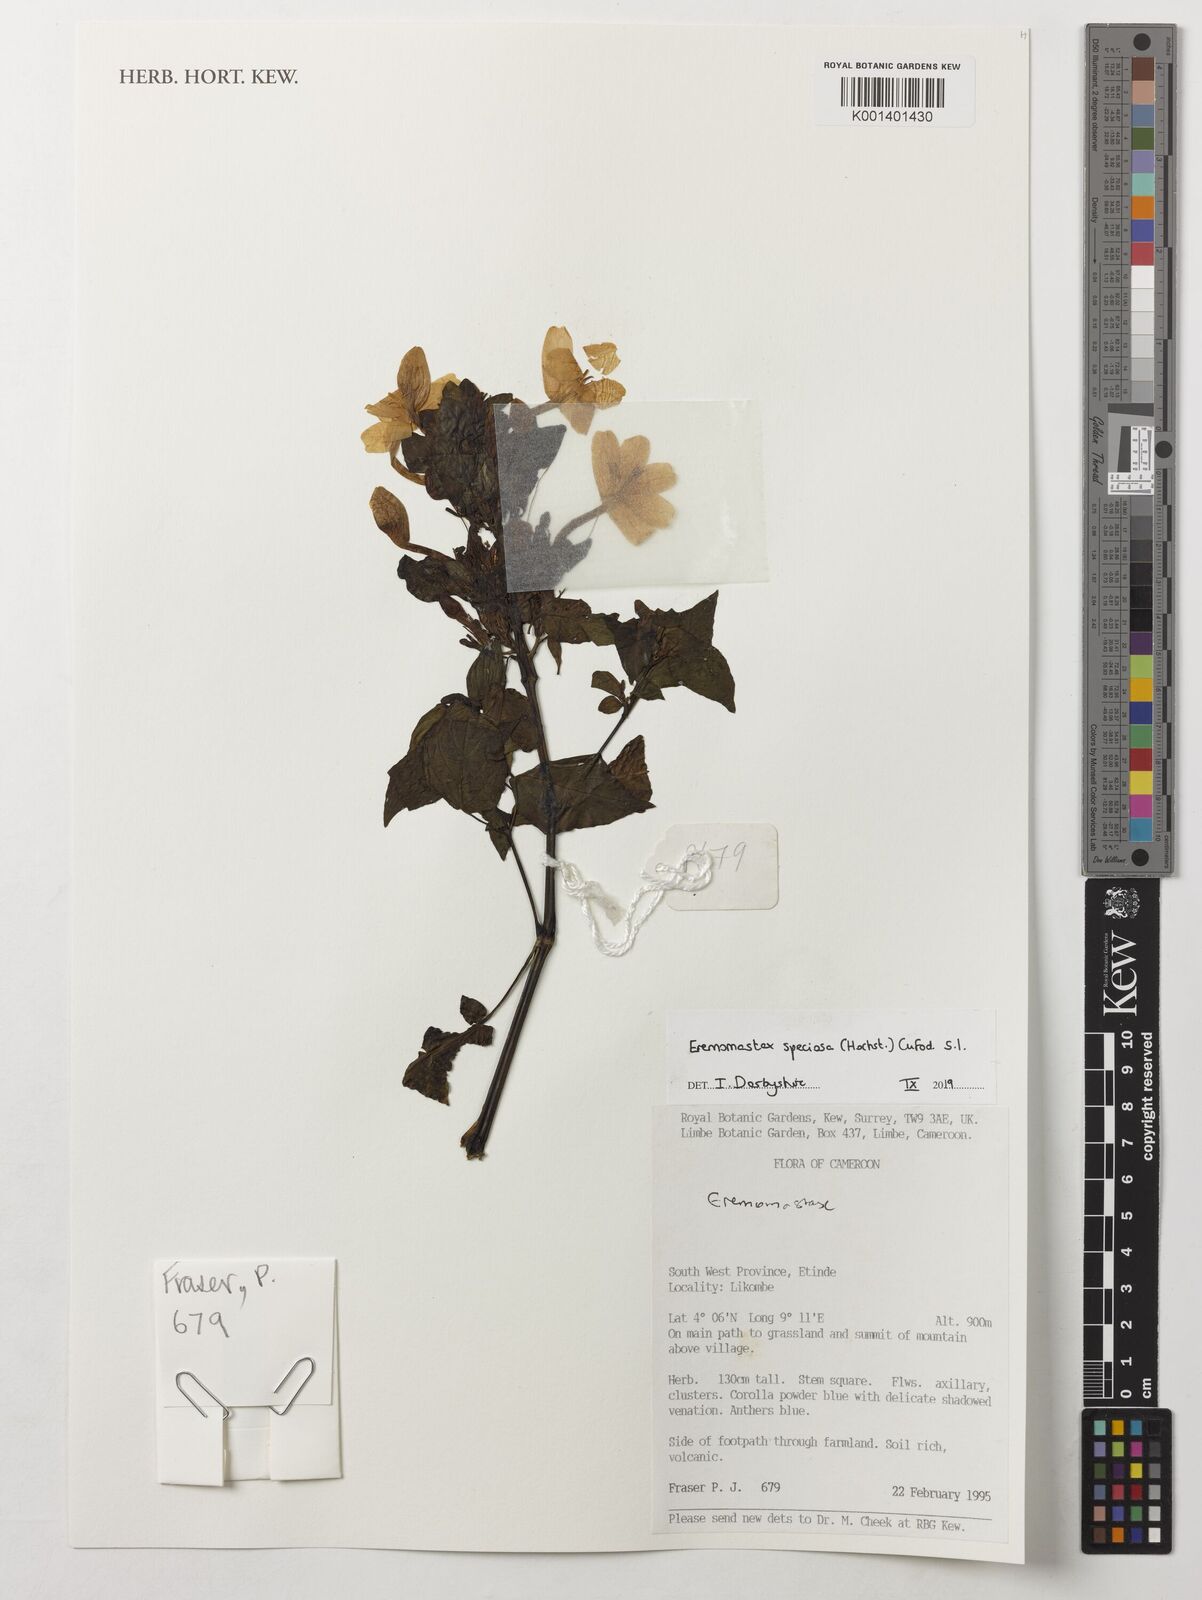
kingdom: Plantae
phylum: Tracheophyta
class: Magnoliopsida
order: Lamiales
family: Acanthaceae
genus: Eremomastax
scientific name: Eremomastax speciosa
